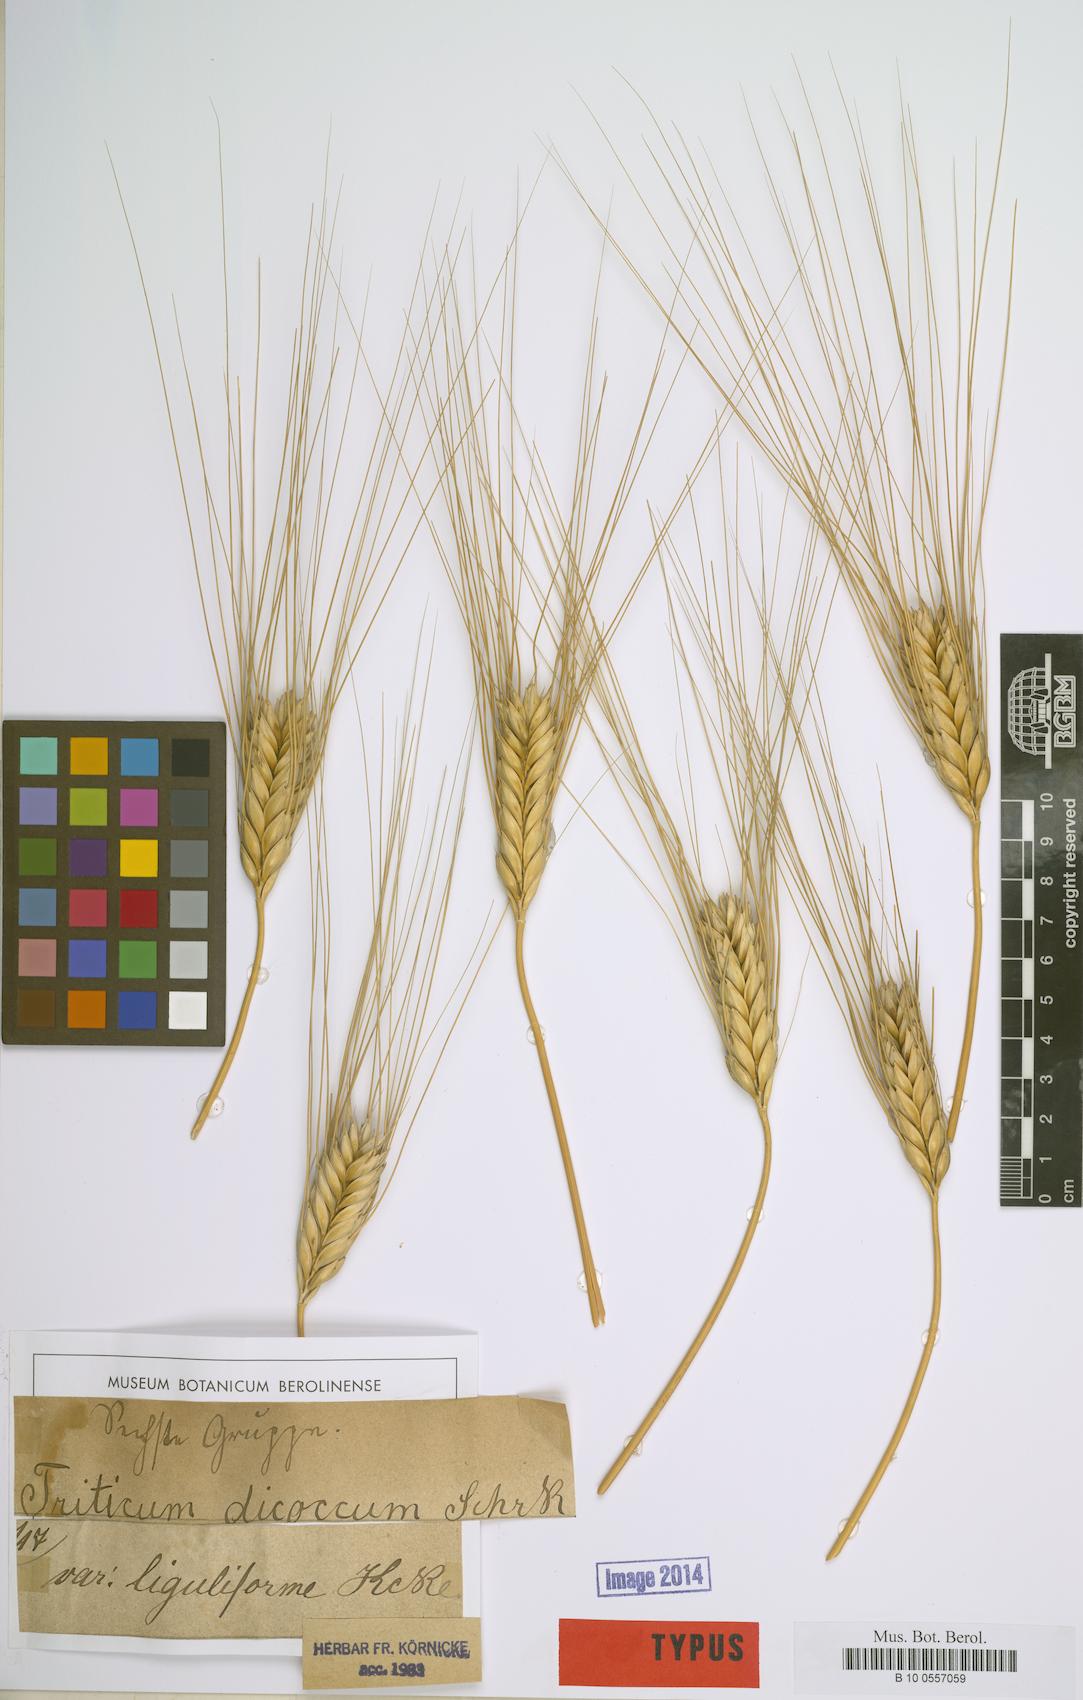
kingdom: Plantae
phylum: Tracheophyta
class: Liliopsida
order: Poales
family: Poaceae
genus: Triticum
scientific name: Triticum turgidum
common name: Rivet wheat
